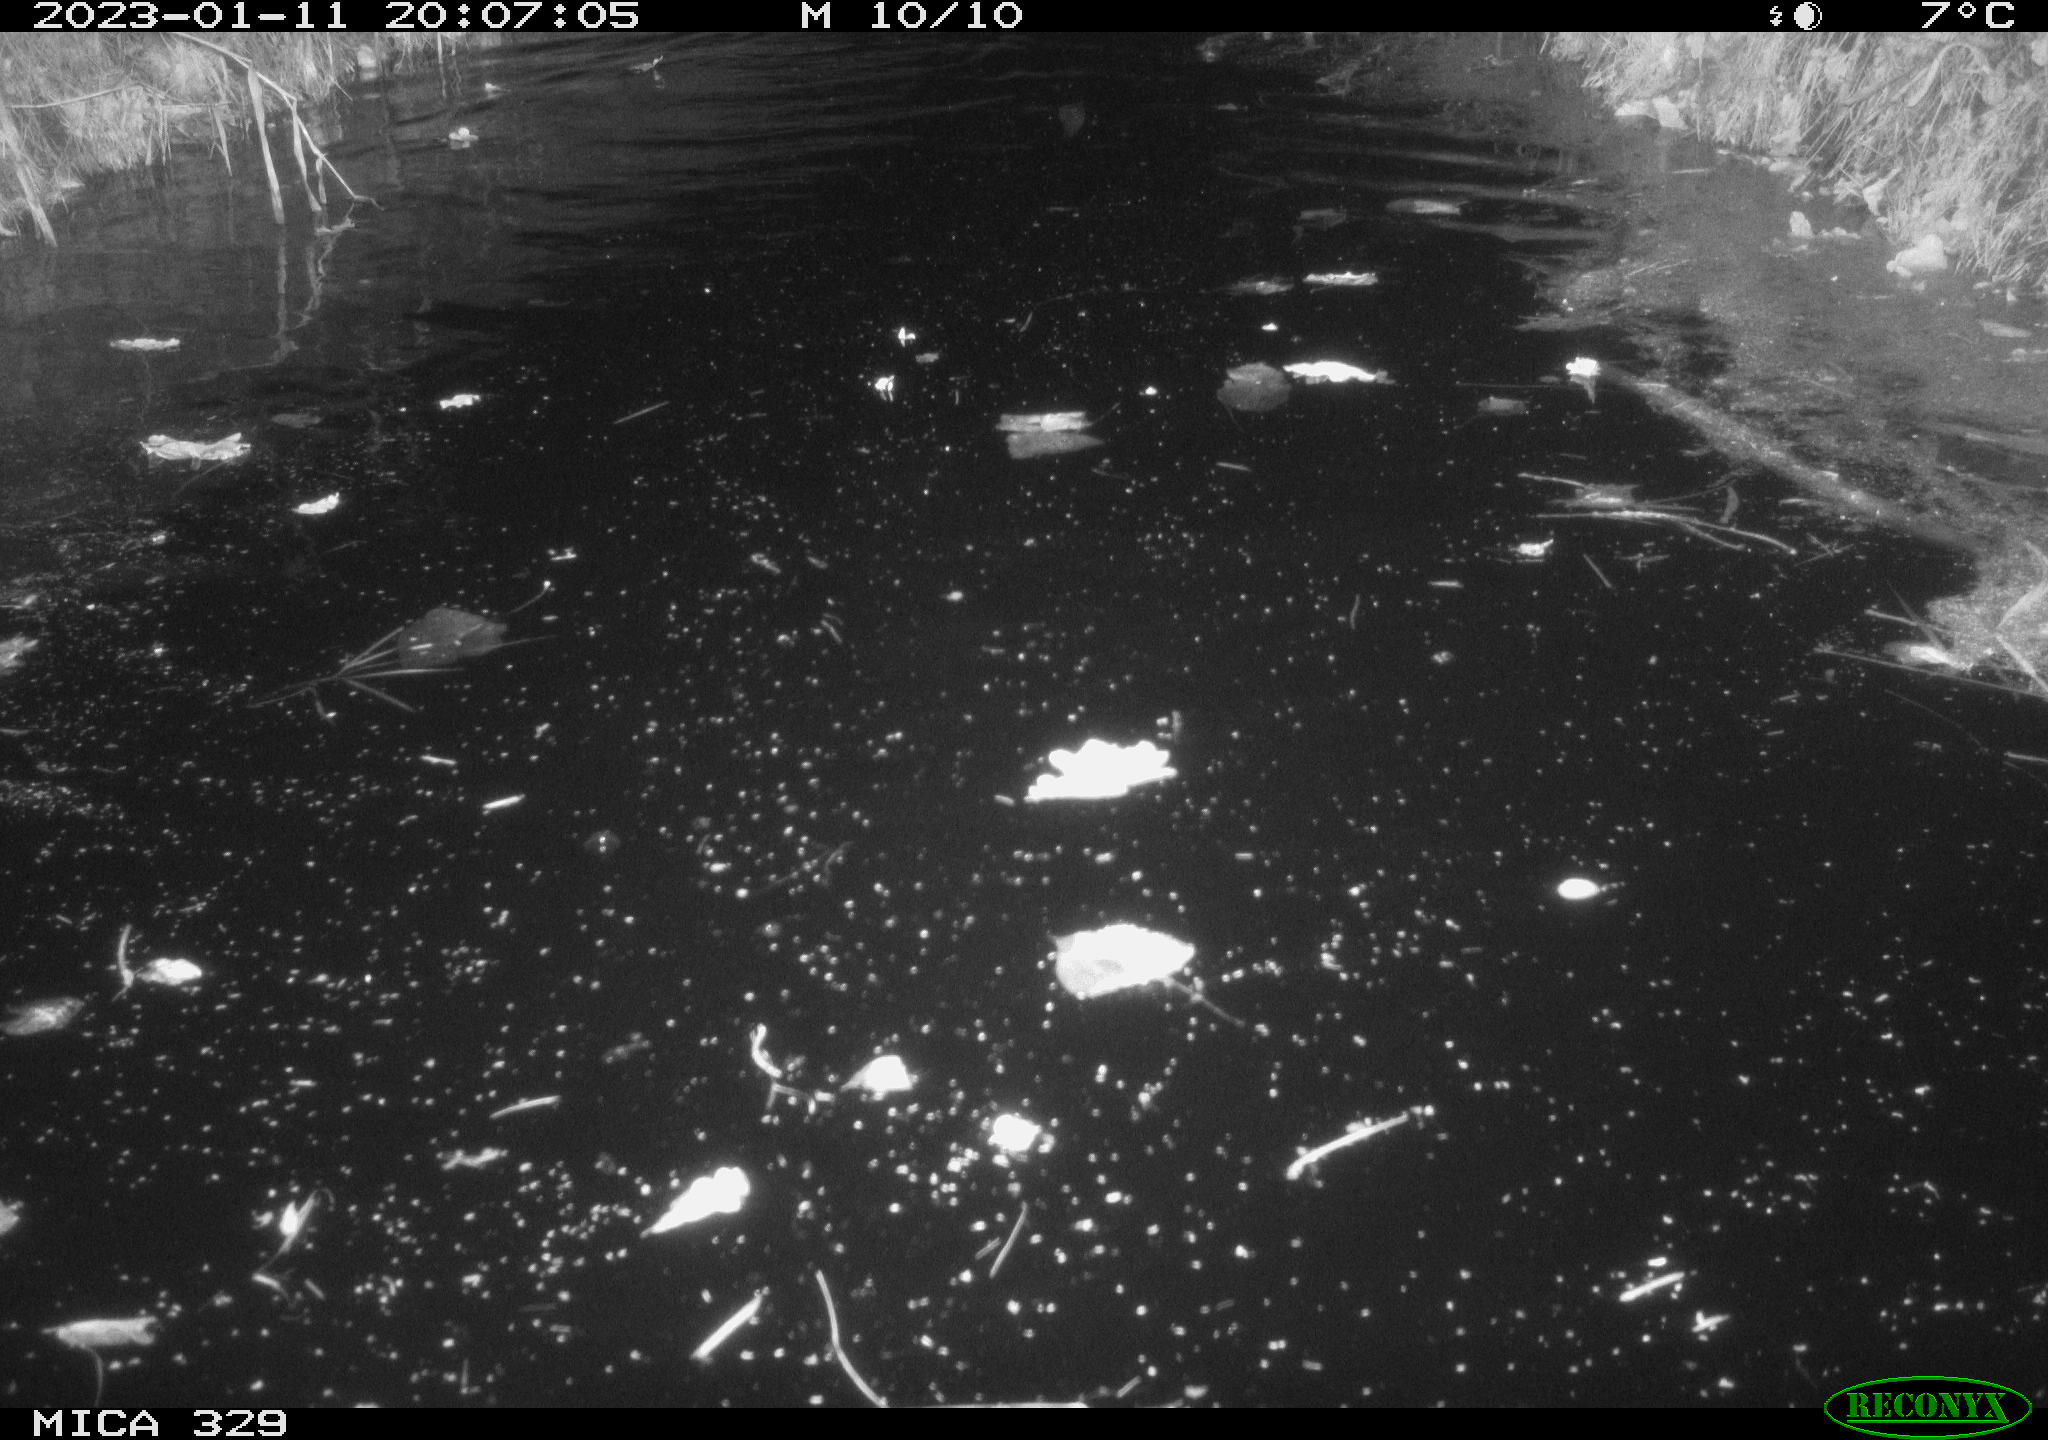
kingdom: Animalia
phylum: Chordata
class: Mammalia
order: Rodentia
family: Cricetidae
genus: Ondatra
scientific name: Ondatra zibethicus
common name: Muskrat
